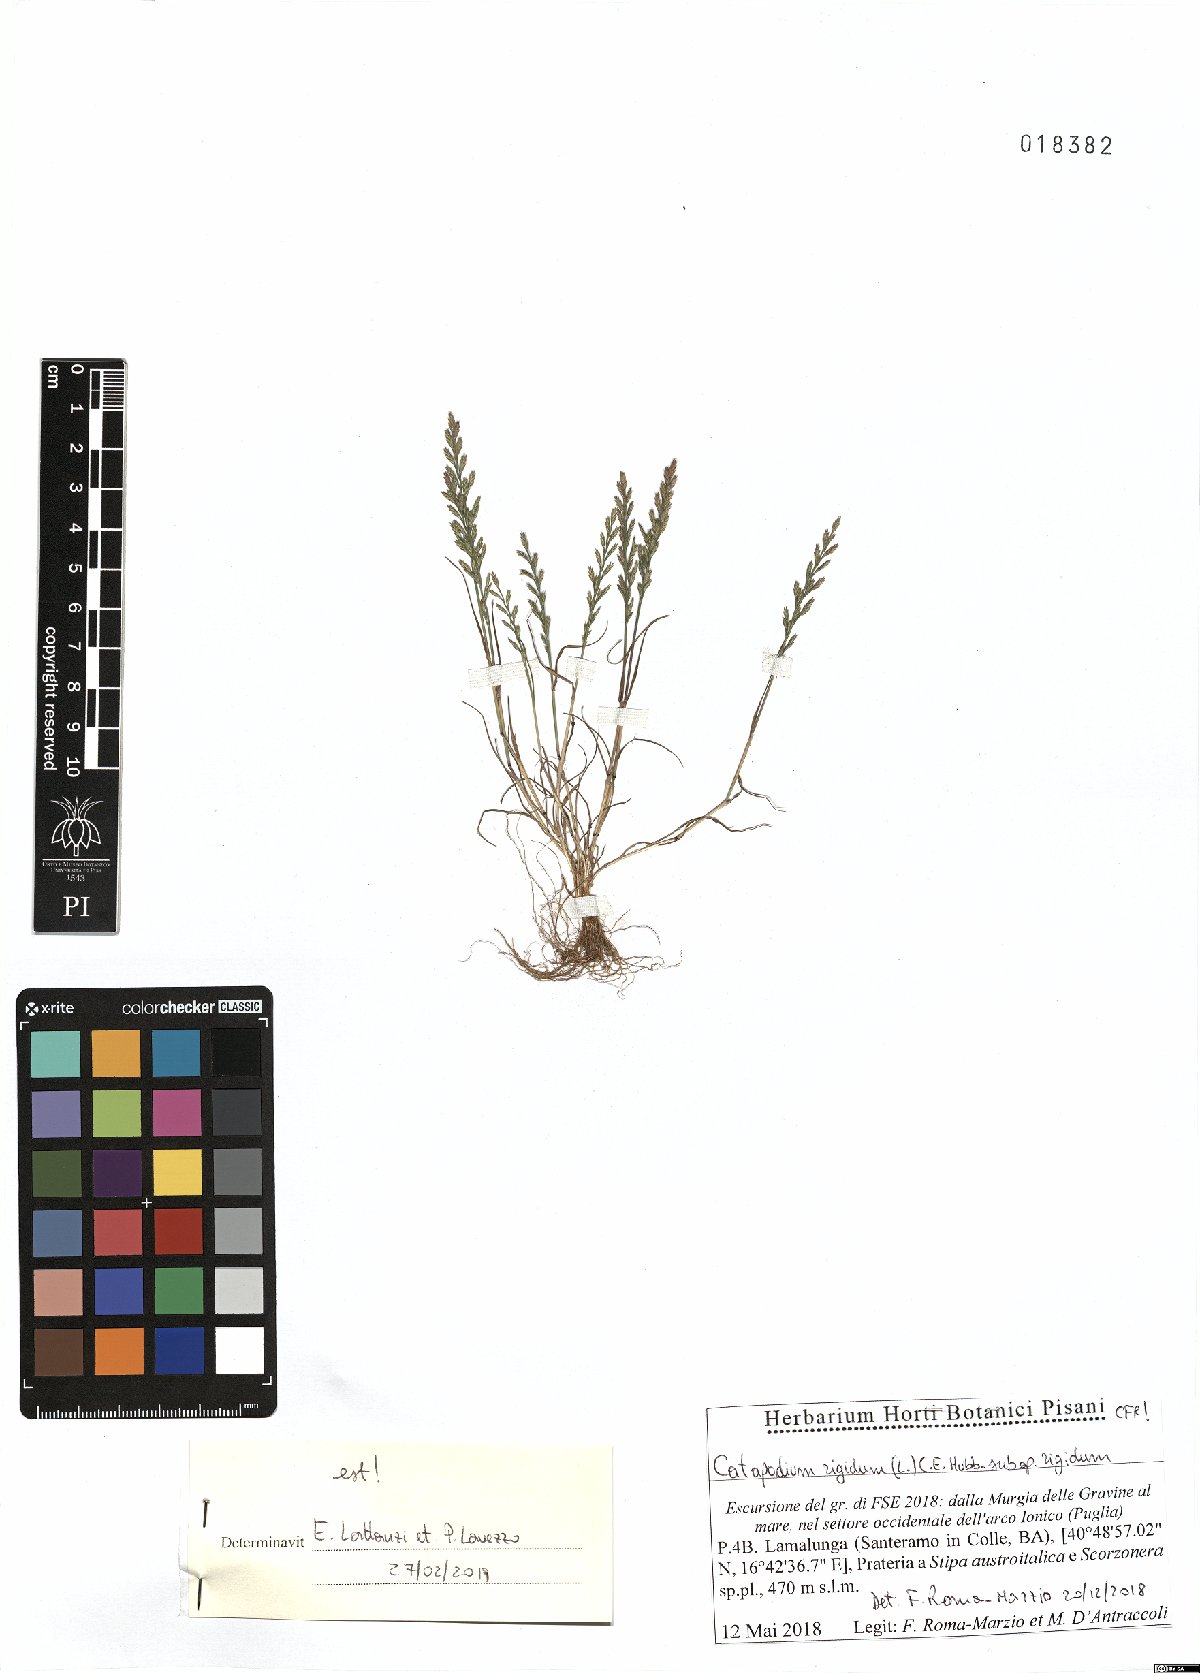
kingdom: Plantae
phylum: Tracheophyta
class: Liliopsida
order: Poales
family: Poaceae
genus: Catapodium
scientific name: Catapodium rigidum
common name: Fern-grass
